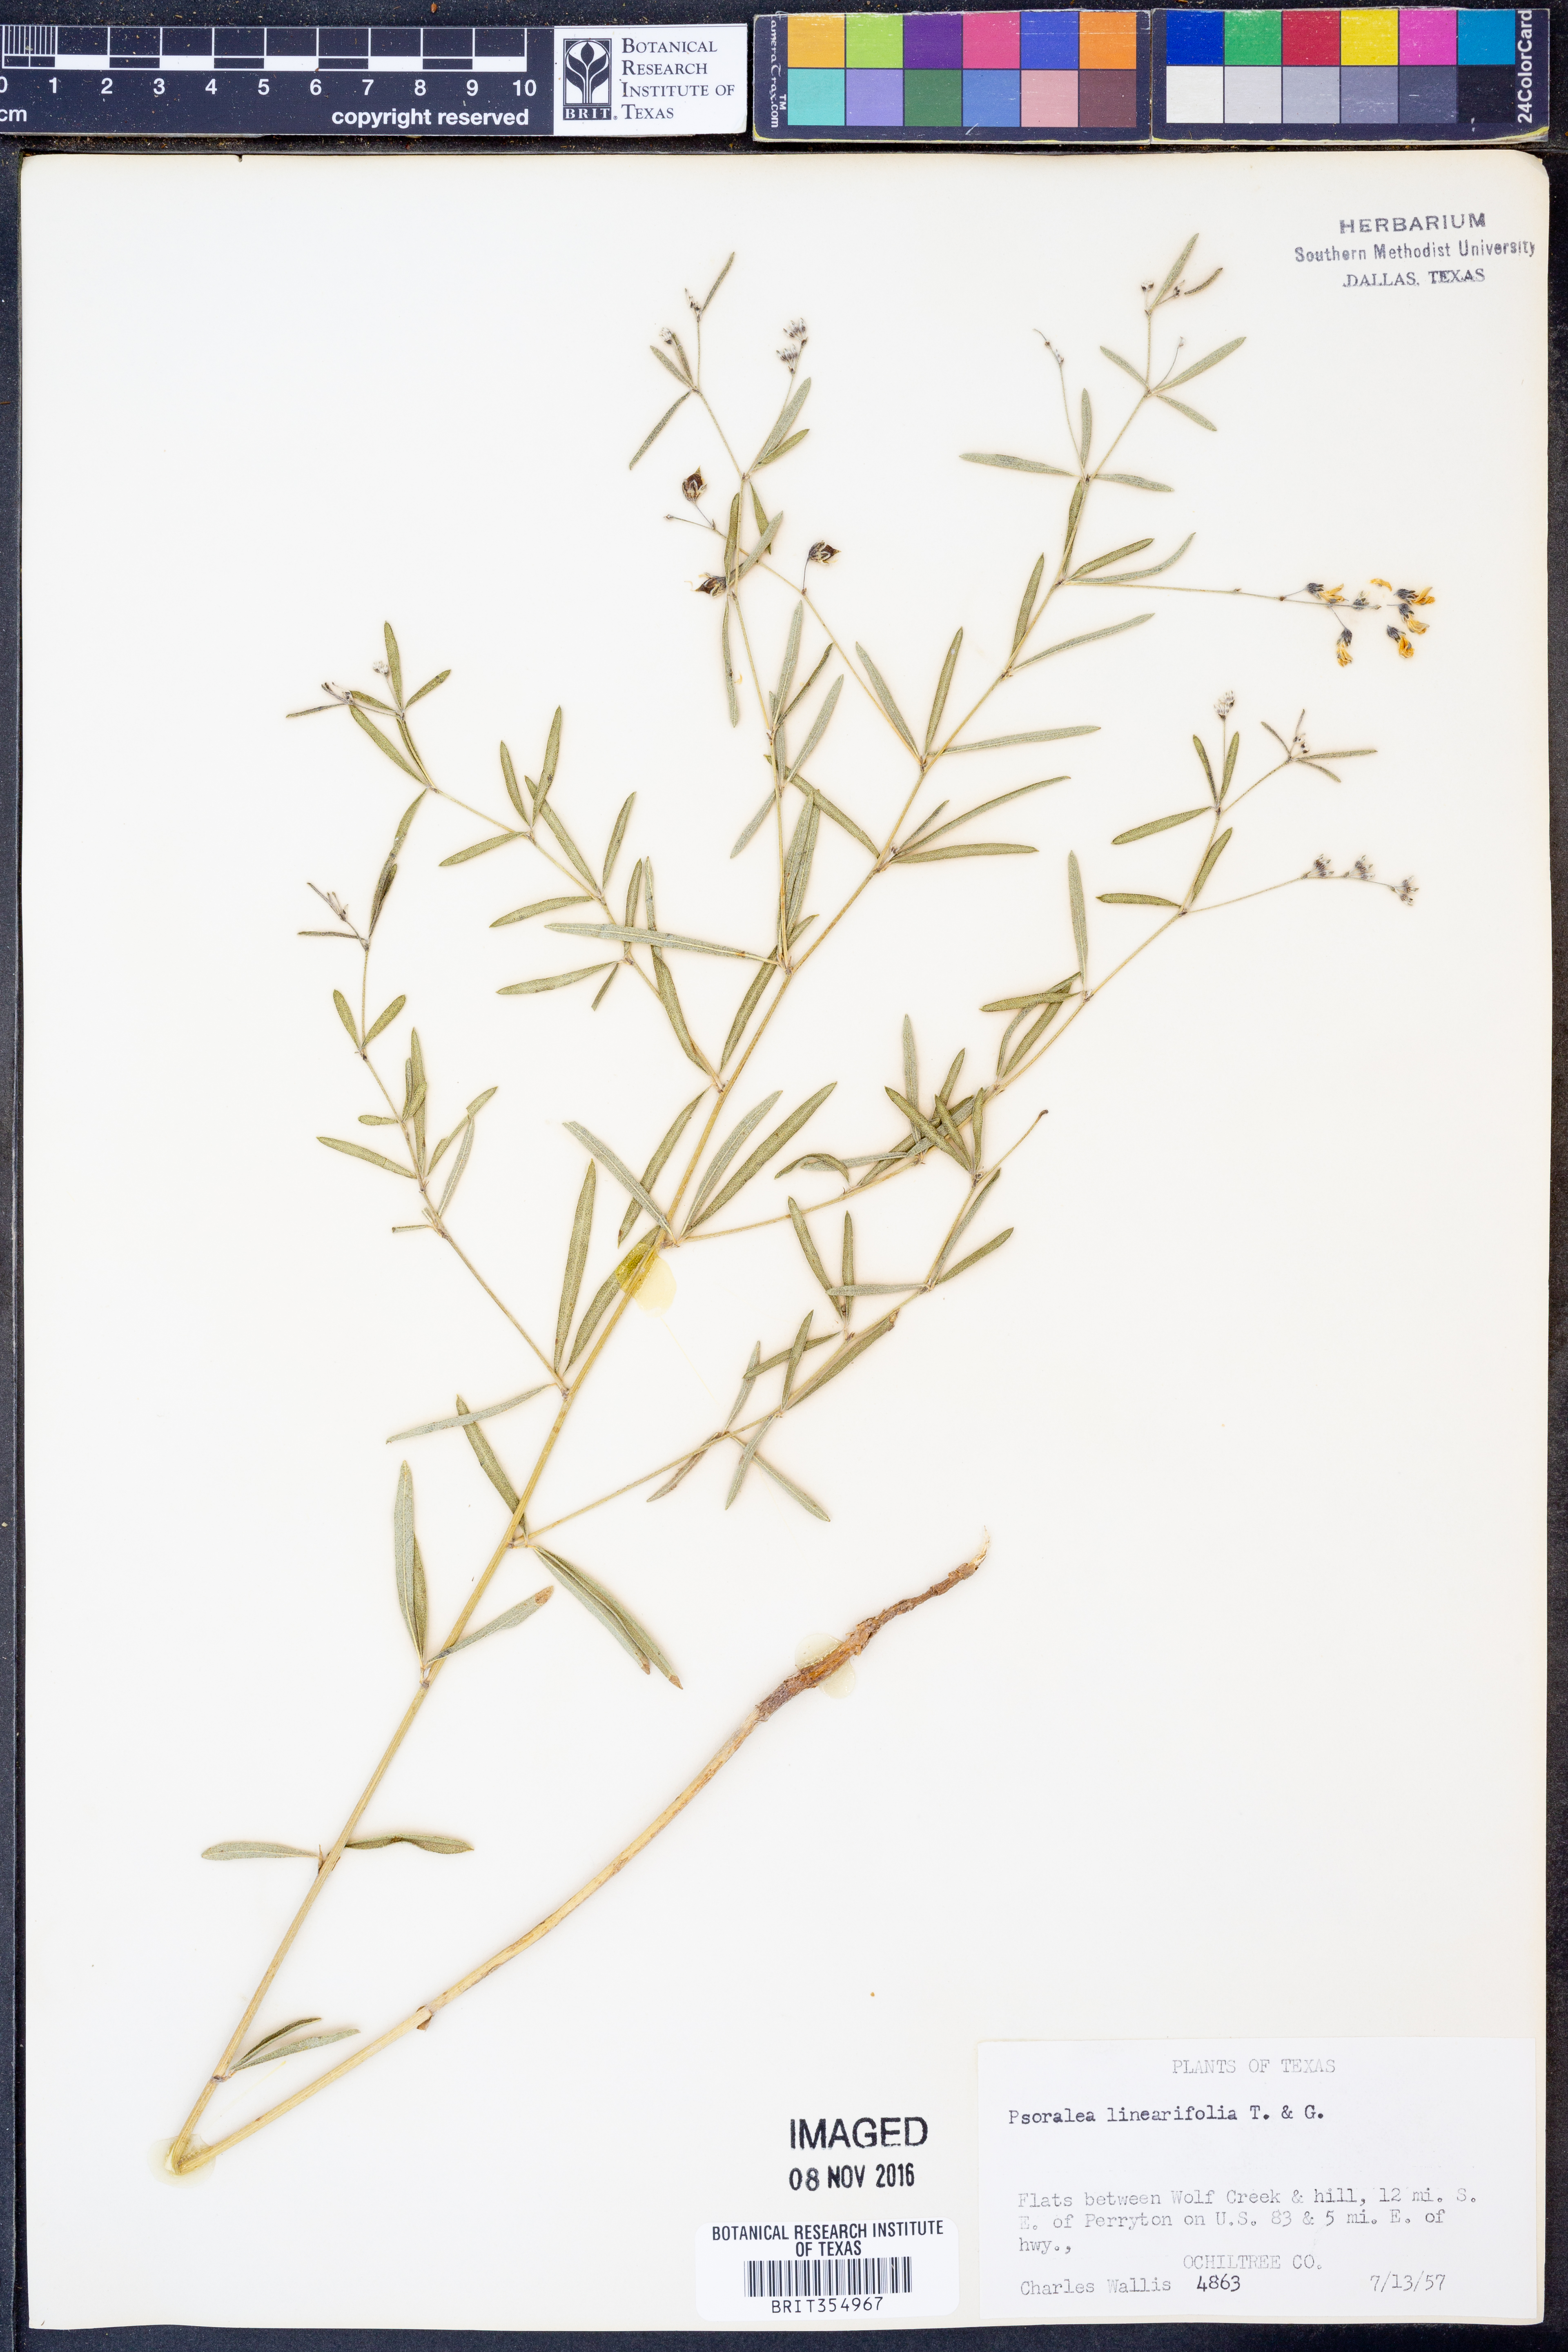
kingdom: Plantae
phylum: Tracheophyta
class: Magnoliopsida
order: Fabales
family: Fabaceae
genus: Pediomelum
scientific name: Pediomelum linearifolium
